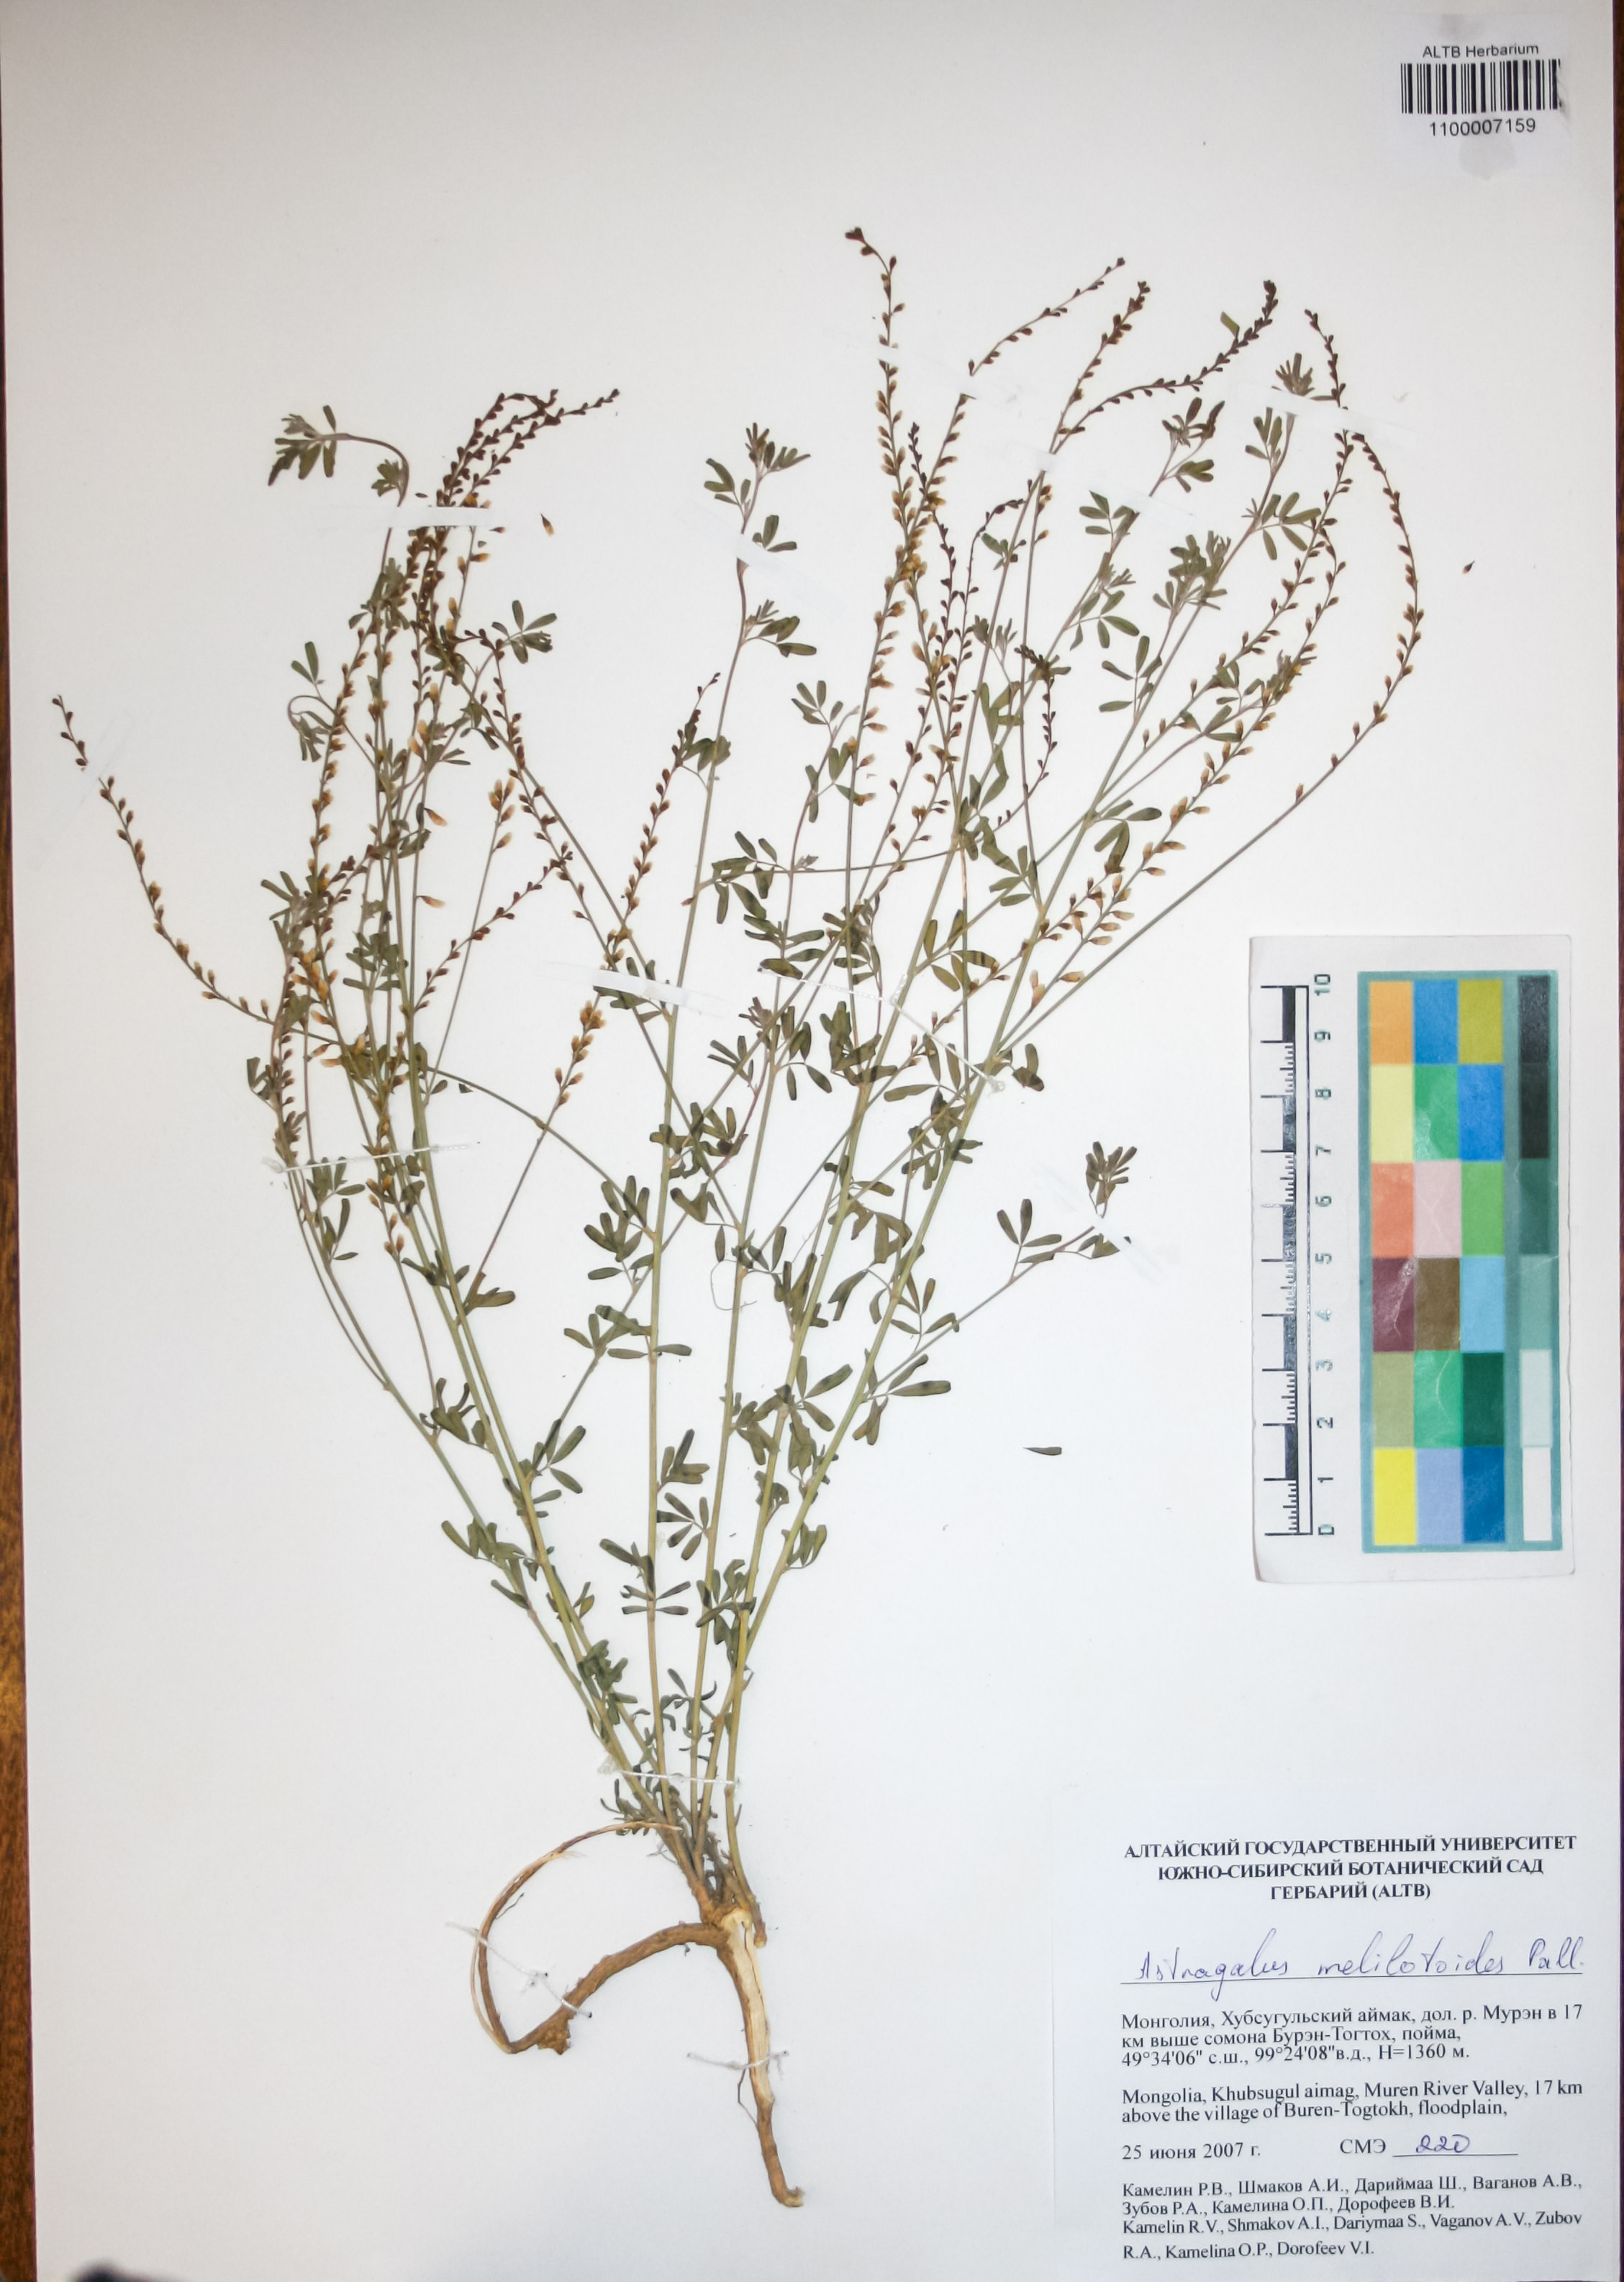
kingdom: Plantae
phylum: Tracheophyta
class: Magnoliopsida
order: Fabales
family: Fabaceae
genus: Astragalus
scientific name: Astragalus melilotoides
